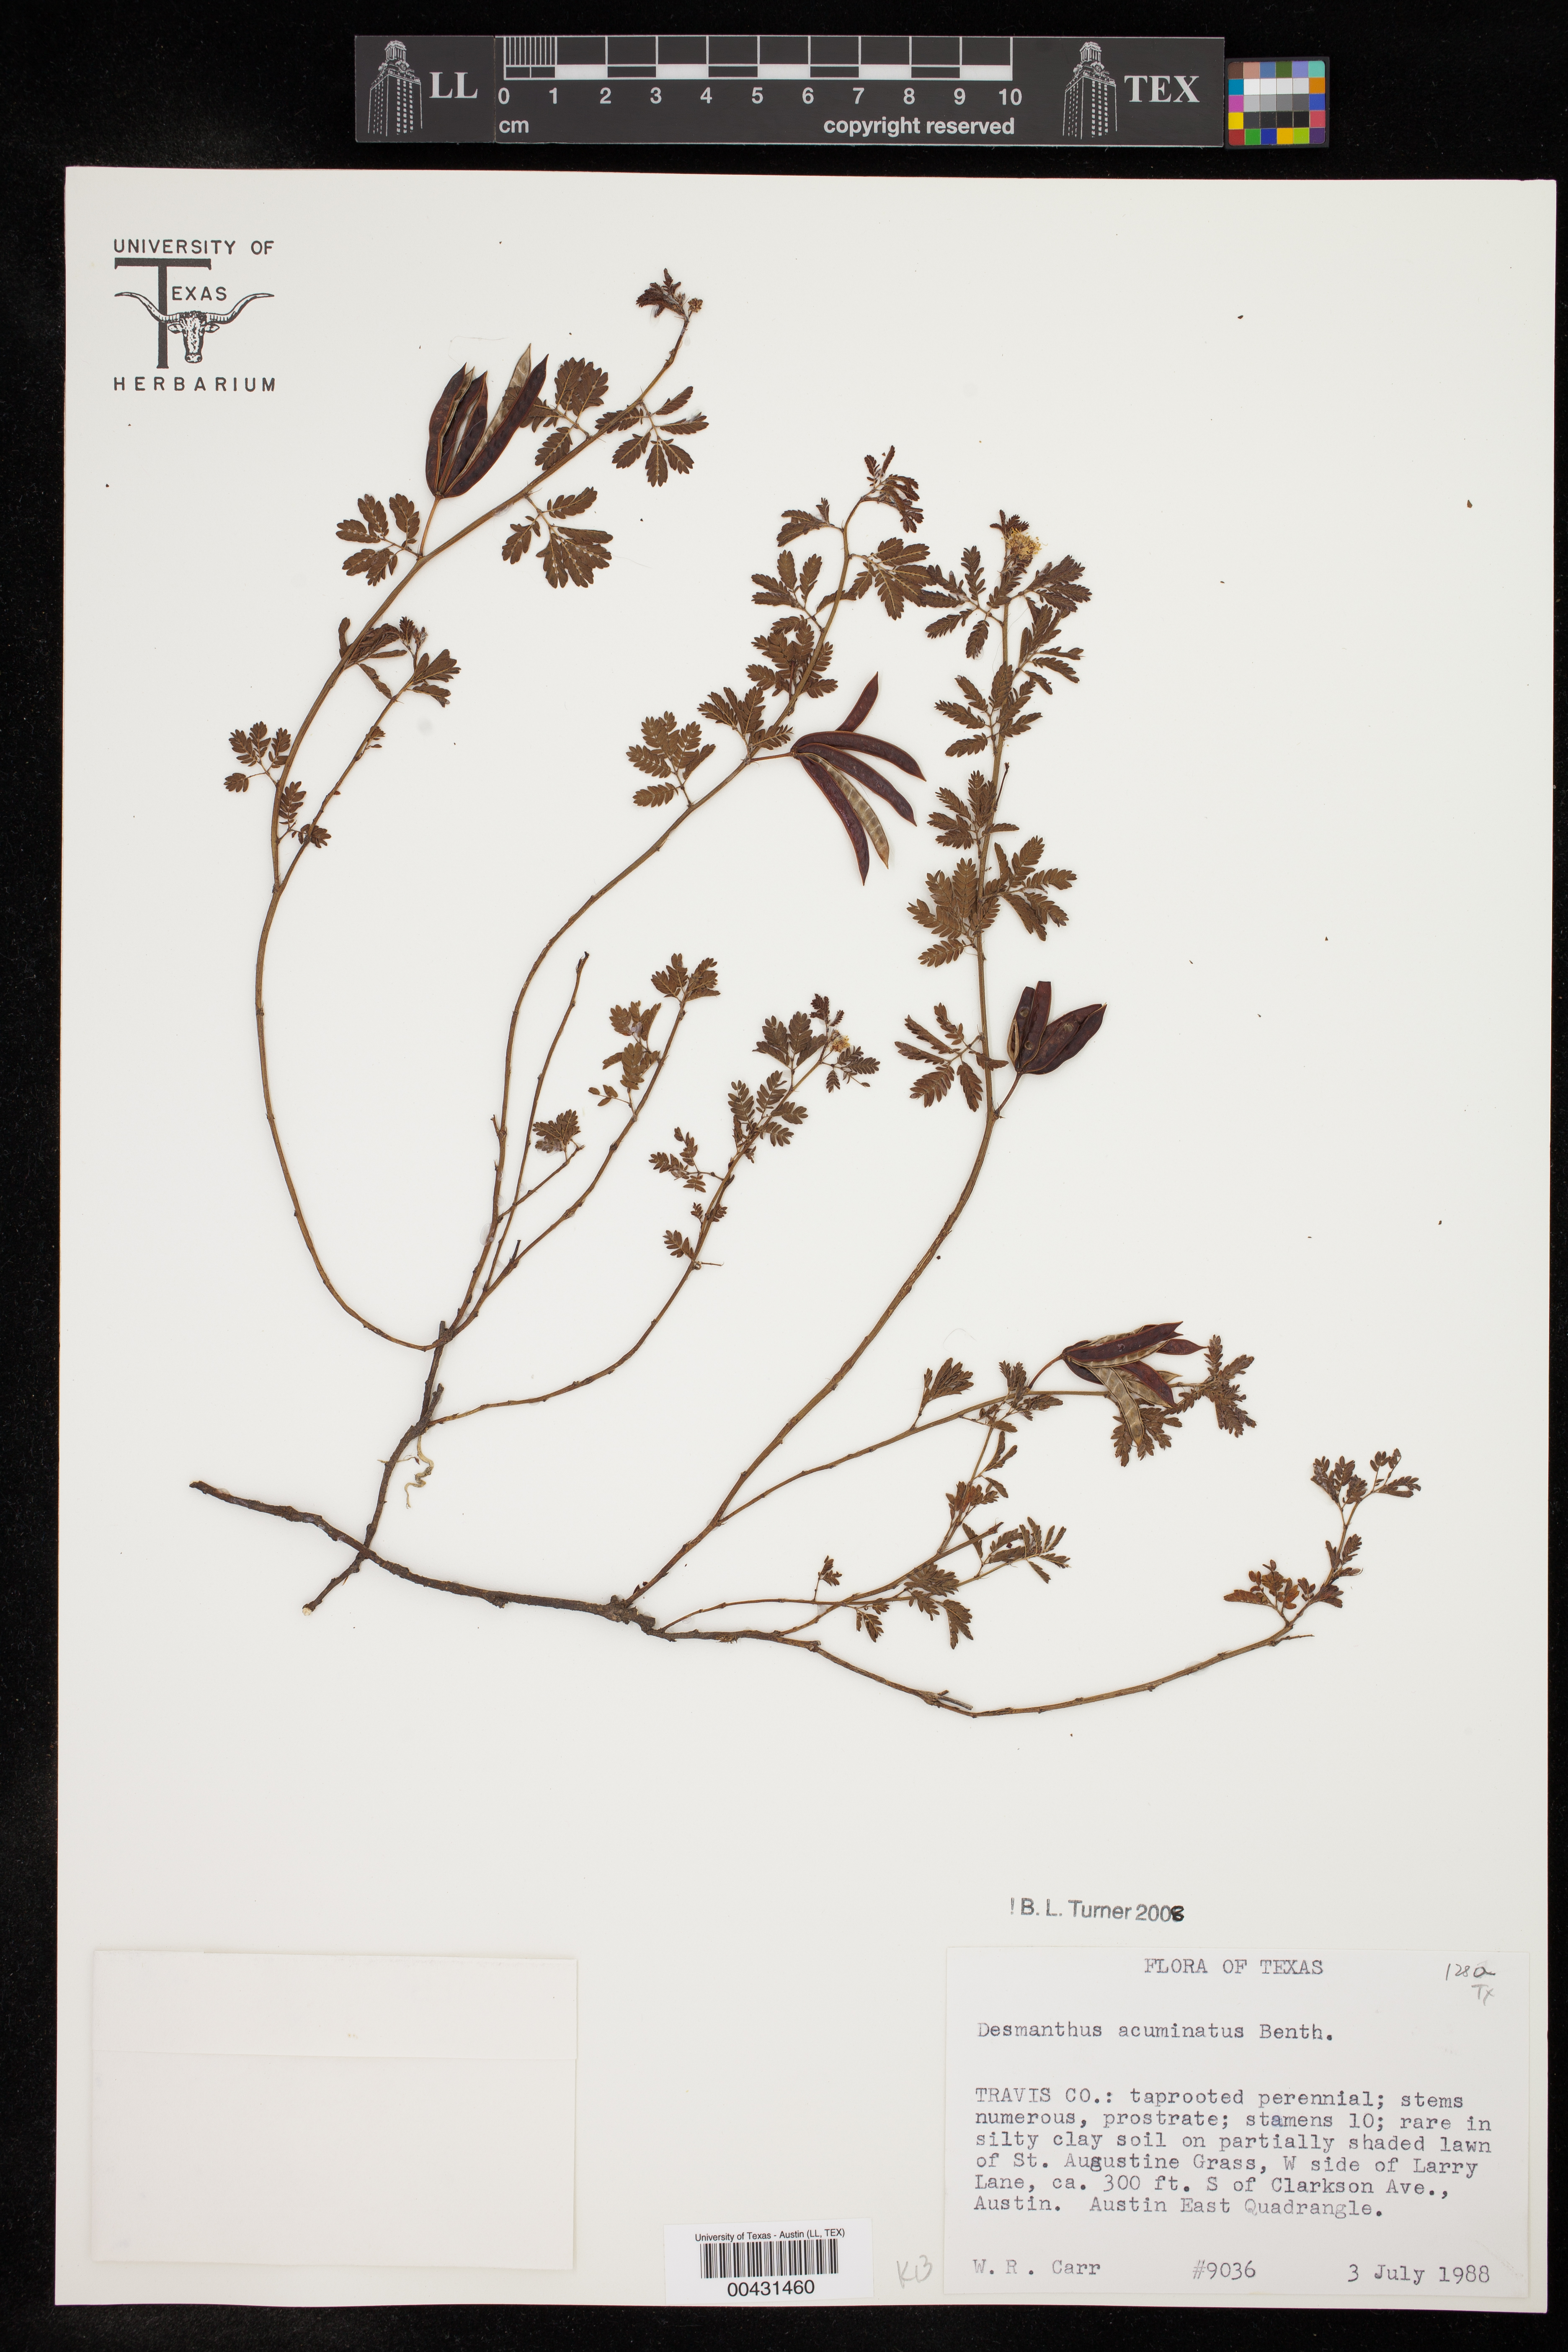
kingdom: Plantae
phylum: Tracheophyta
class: Magnoliopsida
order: Fabales
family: Fabaceae
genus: Desmanthus
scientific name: Desmanthus acuminatus
